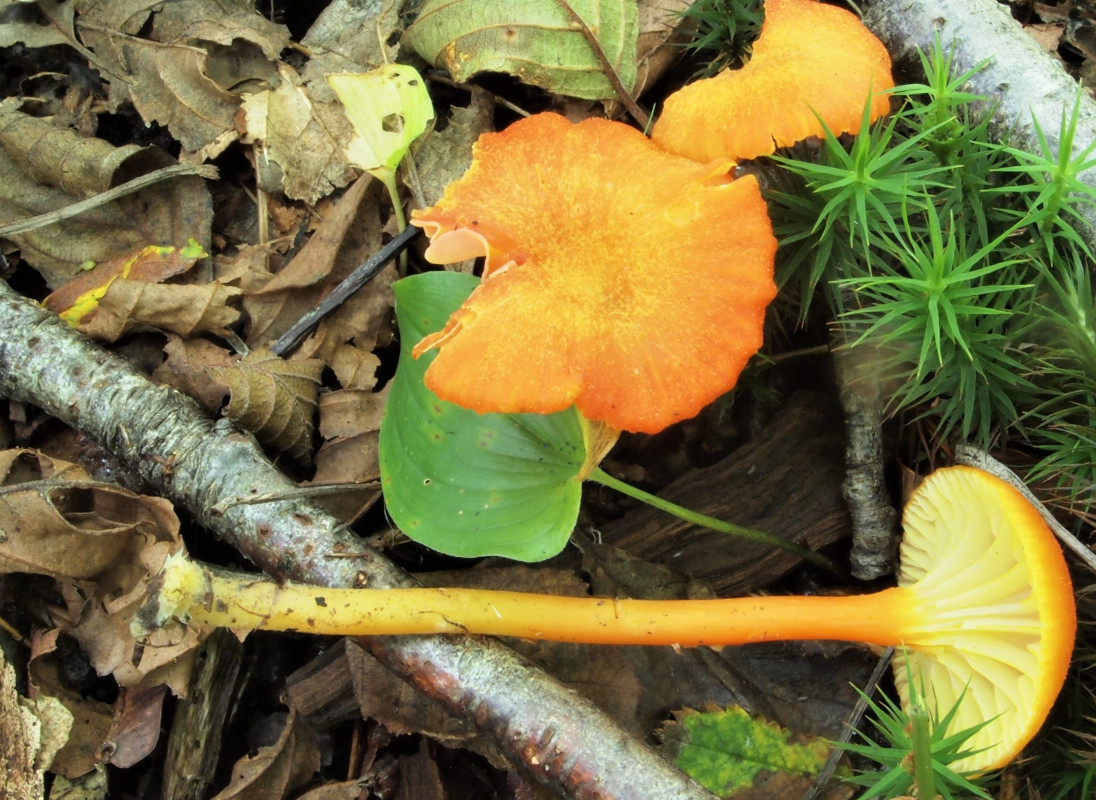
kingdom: Fungi
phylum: Basidiomycota
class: Agaricomycetes
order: Agaricales
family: Hygrophoraceae
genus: Hygrocybe
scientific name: Hygrocybe cantharellus
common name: kantarel-vokshat
